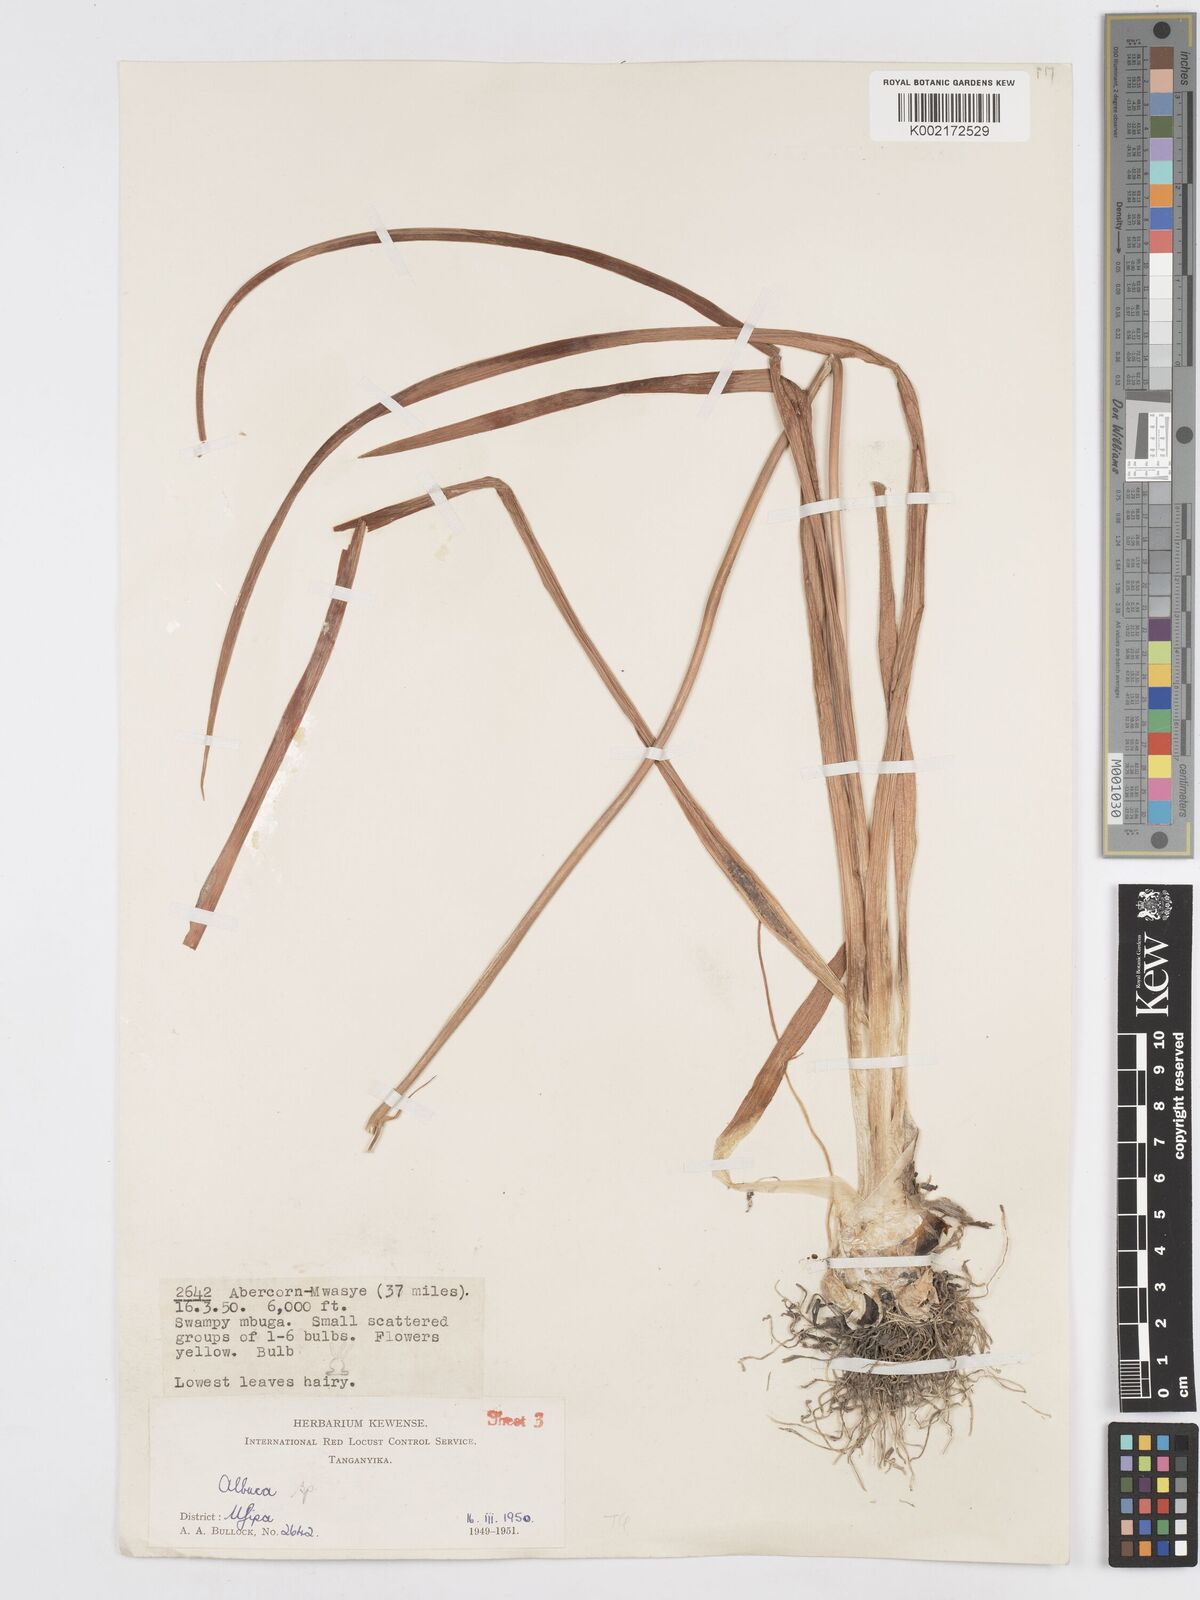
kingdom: Plantae
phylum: Tracheophyta
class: Liliopsida
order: Asparagales
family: Asparagaceae
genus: Albuca
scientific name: Albuca abyssinica
